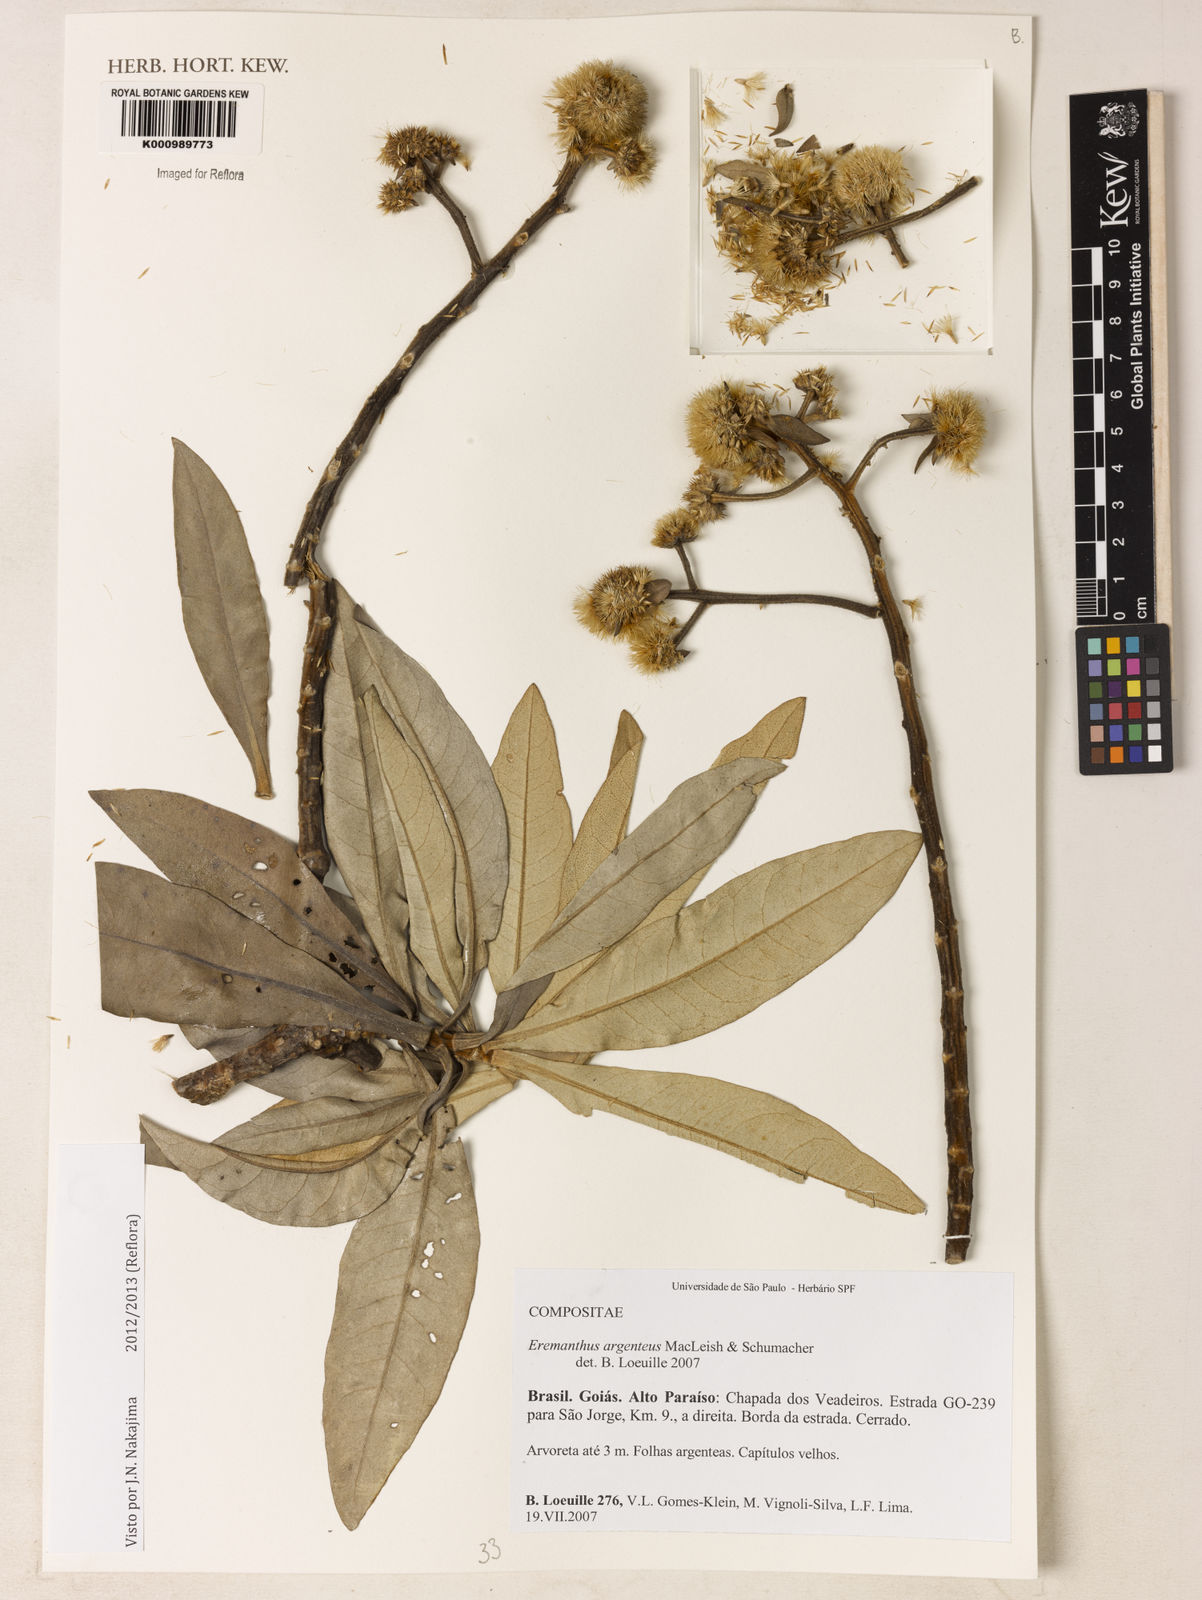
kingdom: Plantae
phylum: Tracheophyta
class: Magnoliopsida
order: Asterales
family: Asteraceae
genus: Eremanthus
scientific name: Eremanthus argenteus
